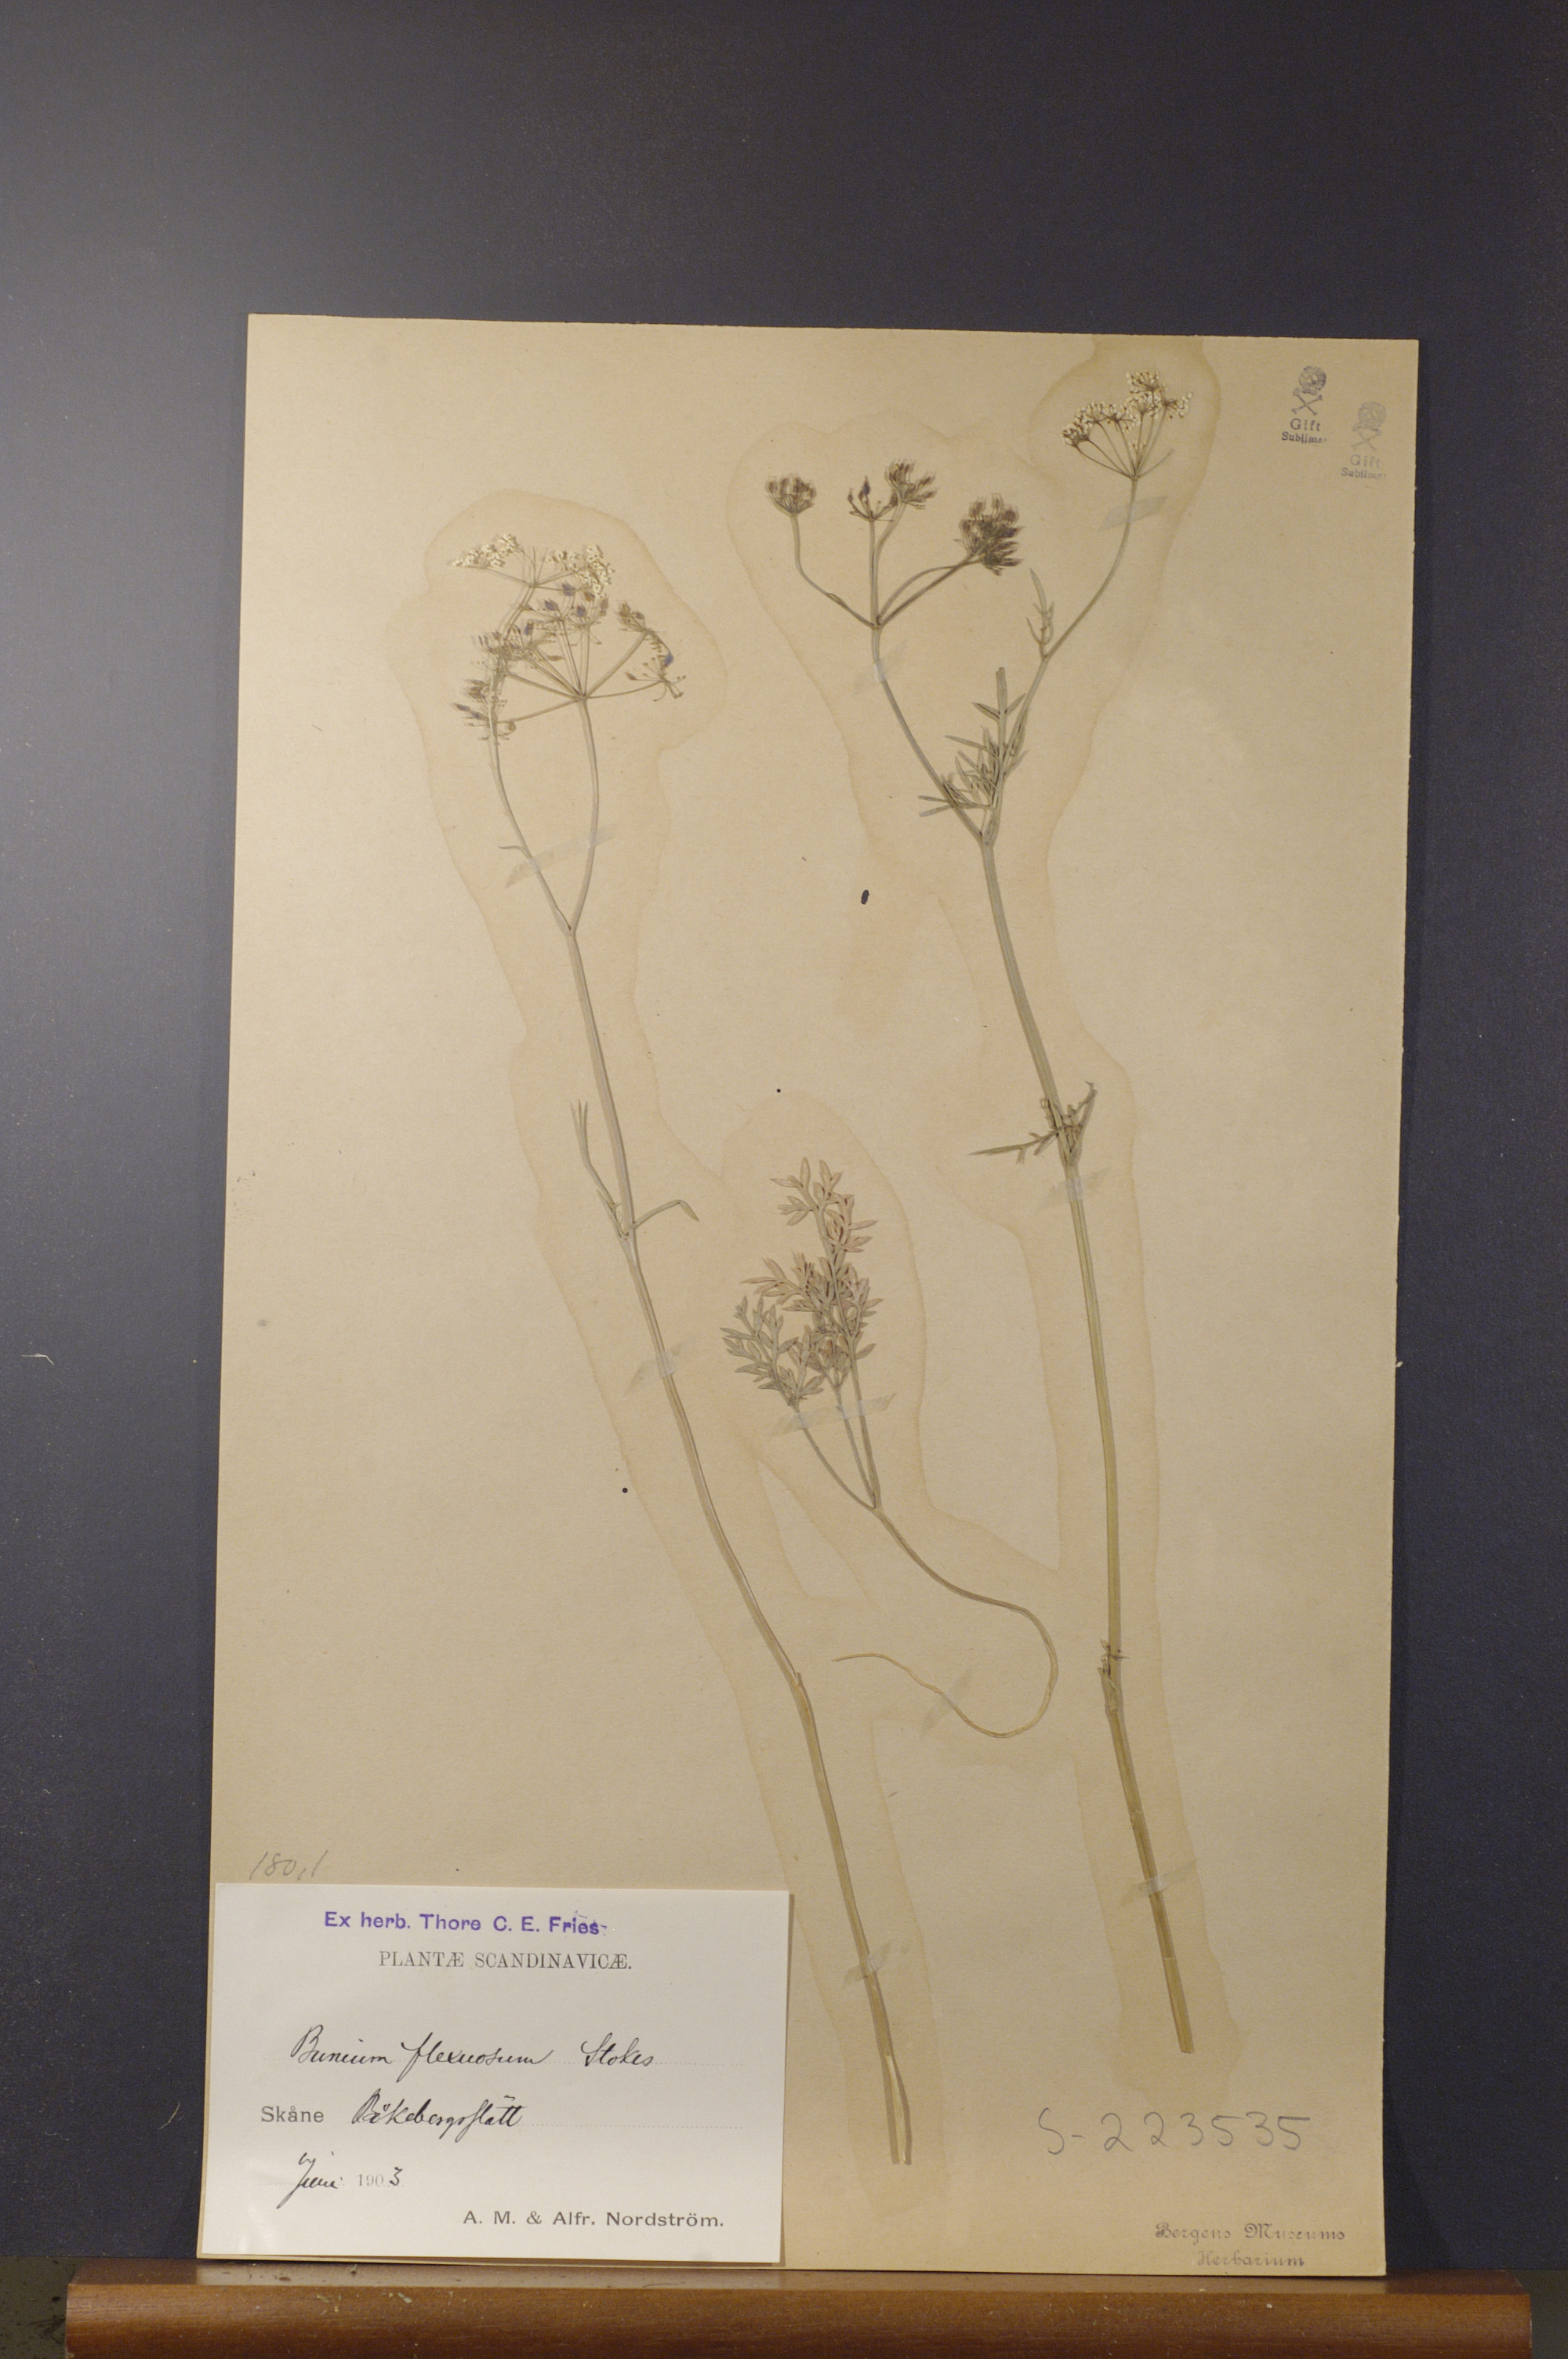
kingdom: Plantae
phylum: Tracheophyta
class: Magnoliopsida
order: Apiales
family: Apiaceae
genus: Conopodium
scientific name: Conopodium majus
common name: Pignut
